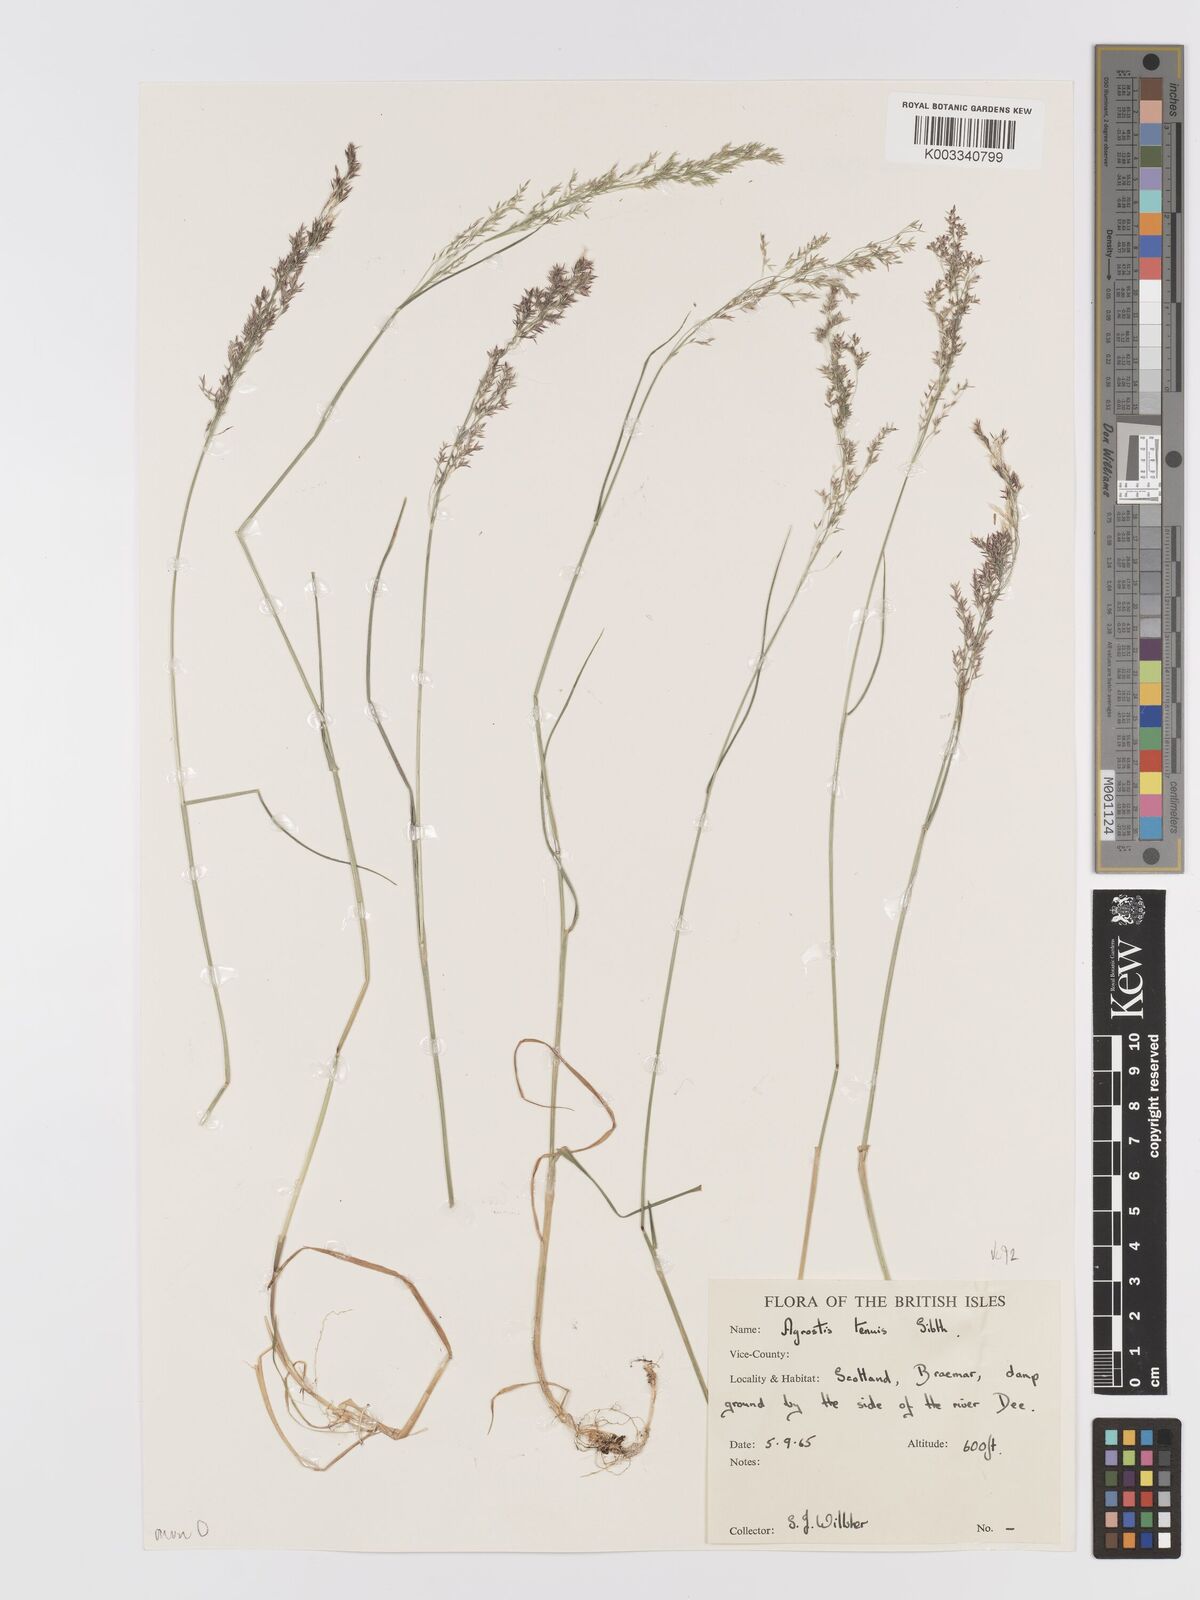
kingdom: Plantae
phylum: Tracheophyta
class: Liliopsida
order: Poales
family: Poaceae
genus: Agrostis
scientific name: Agrostis capillaris
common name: Colonial bentgrass
